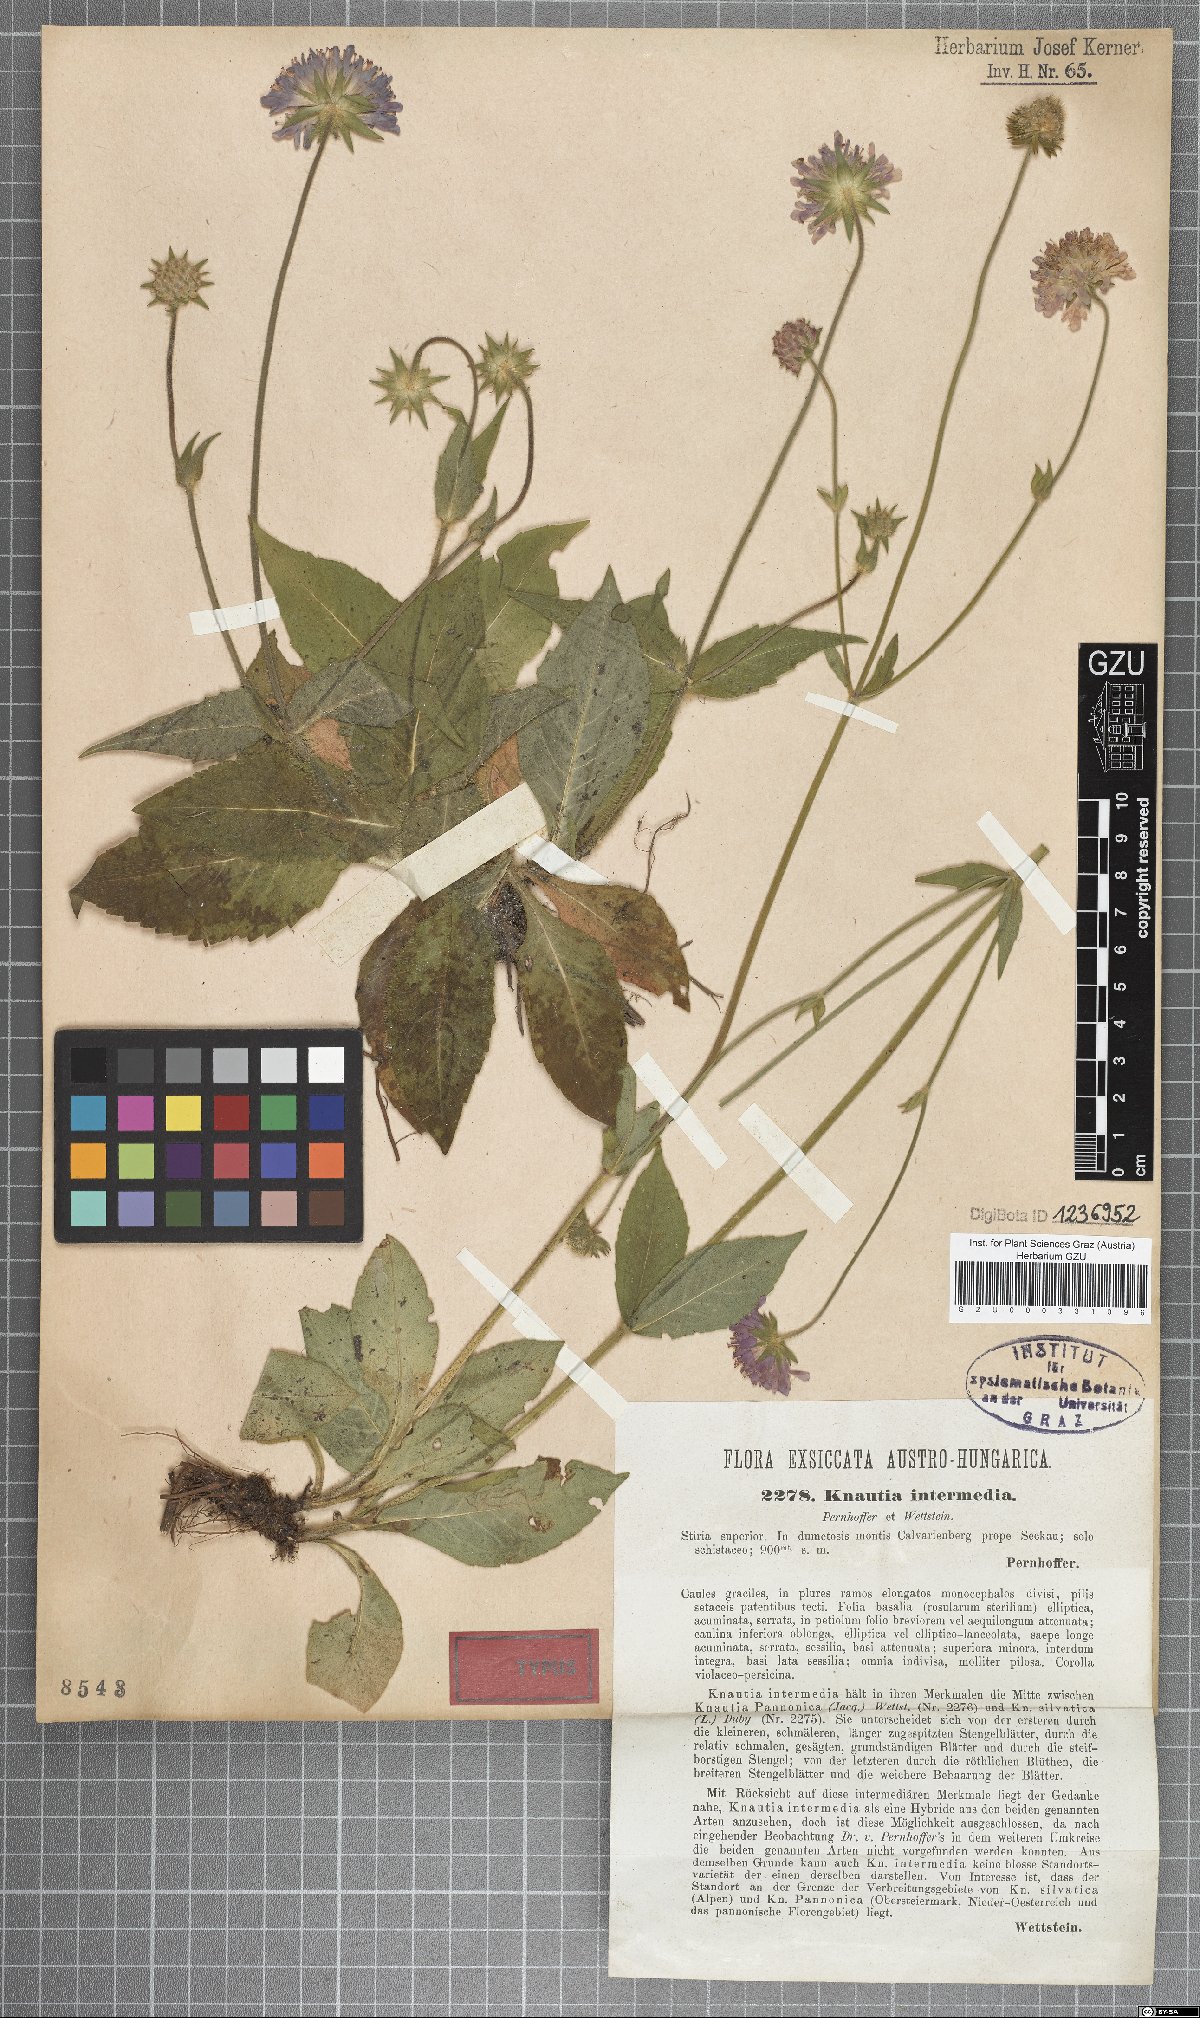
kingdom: Plantae
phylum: Tracheophyta
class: Magnoliopsida
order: Dipsacales
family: Caprifoliaceae
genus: Knautia
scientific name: Knautia drymeia
